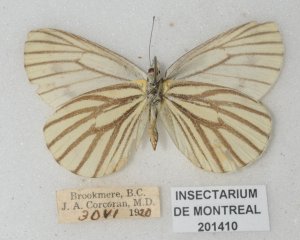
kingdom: Animalia
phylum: Arthropoda
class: Insecta
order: Lepidoptera
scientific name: Lepidoptera
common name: Butterflies
